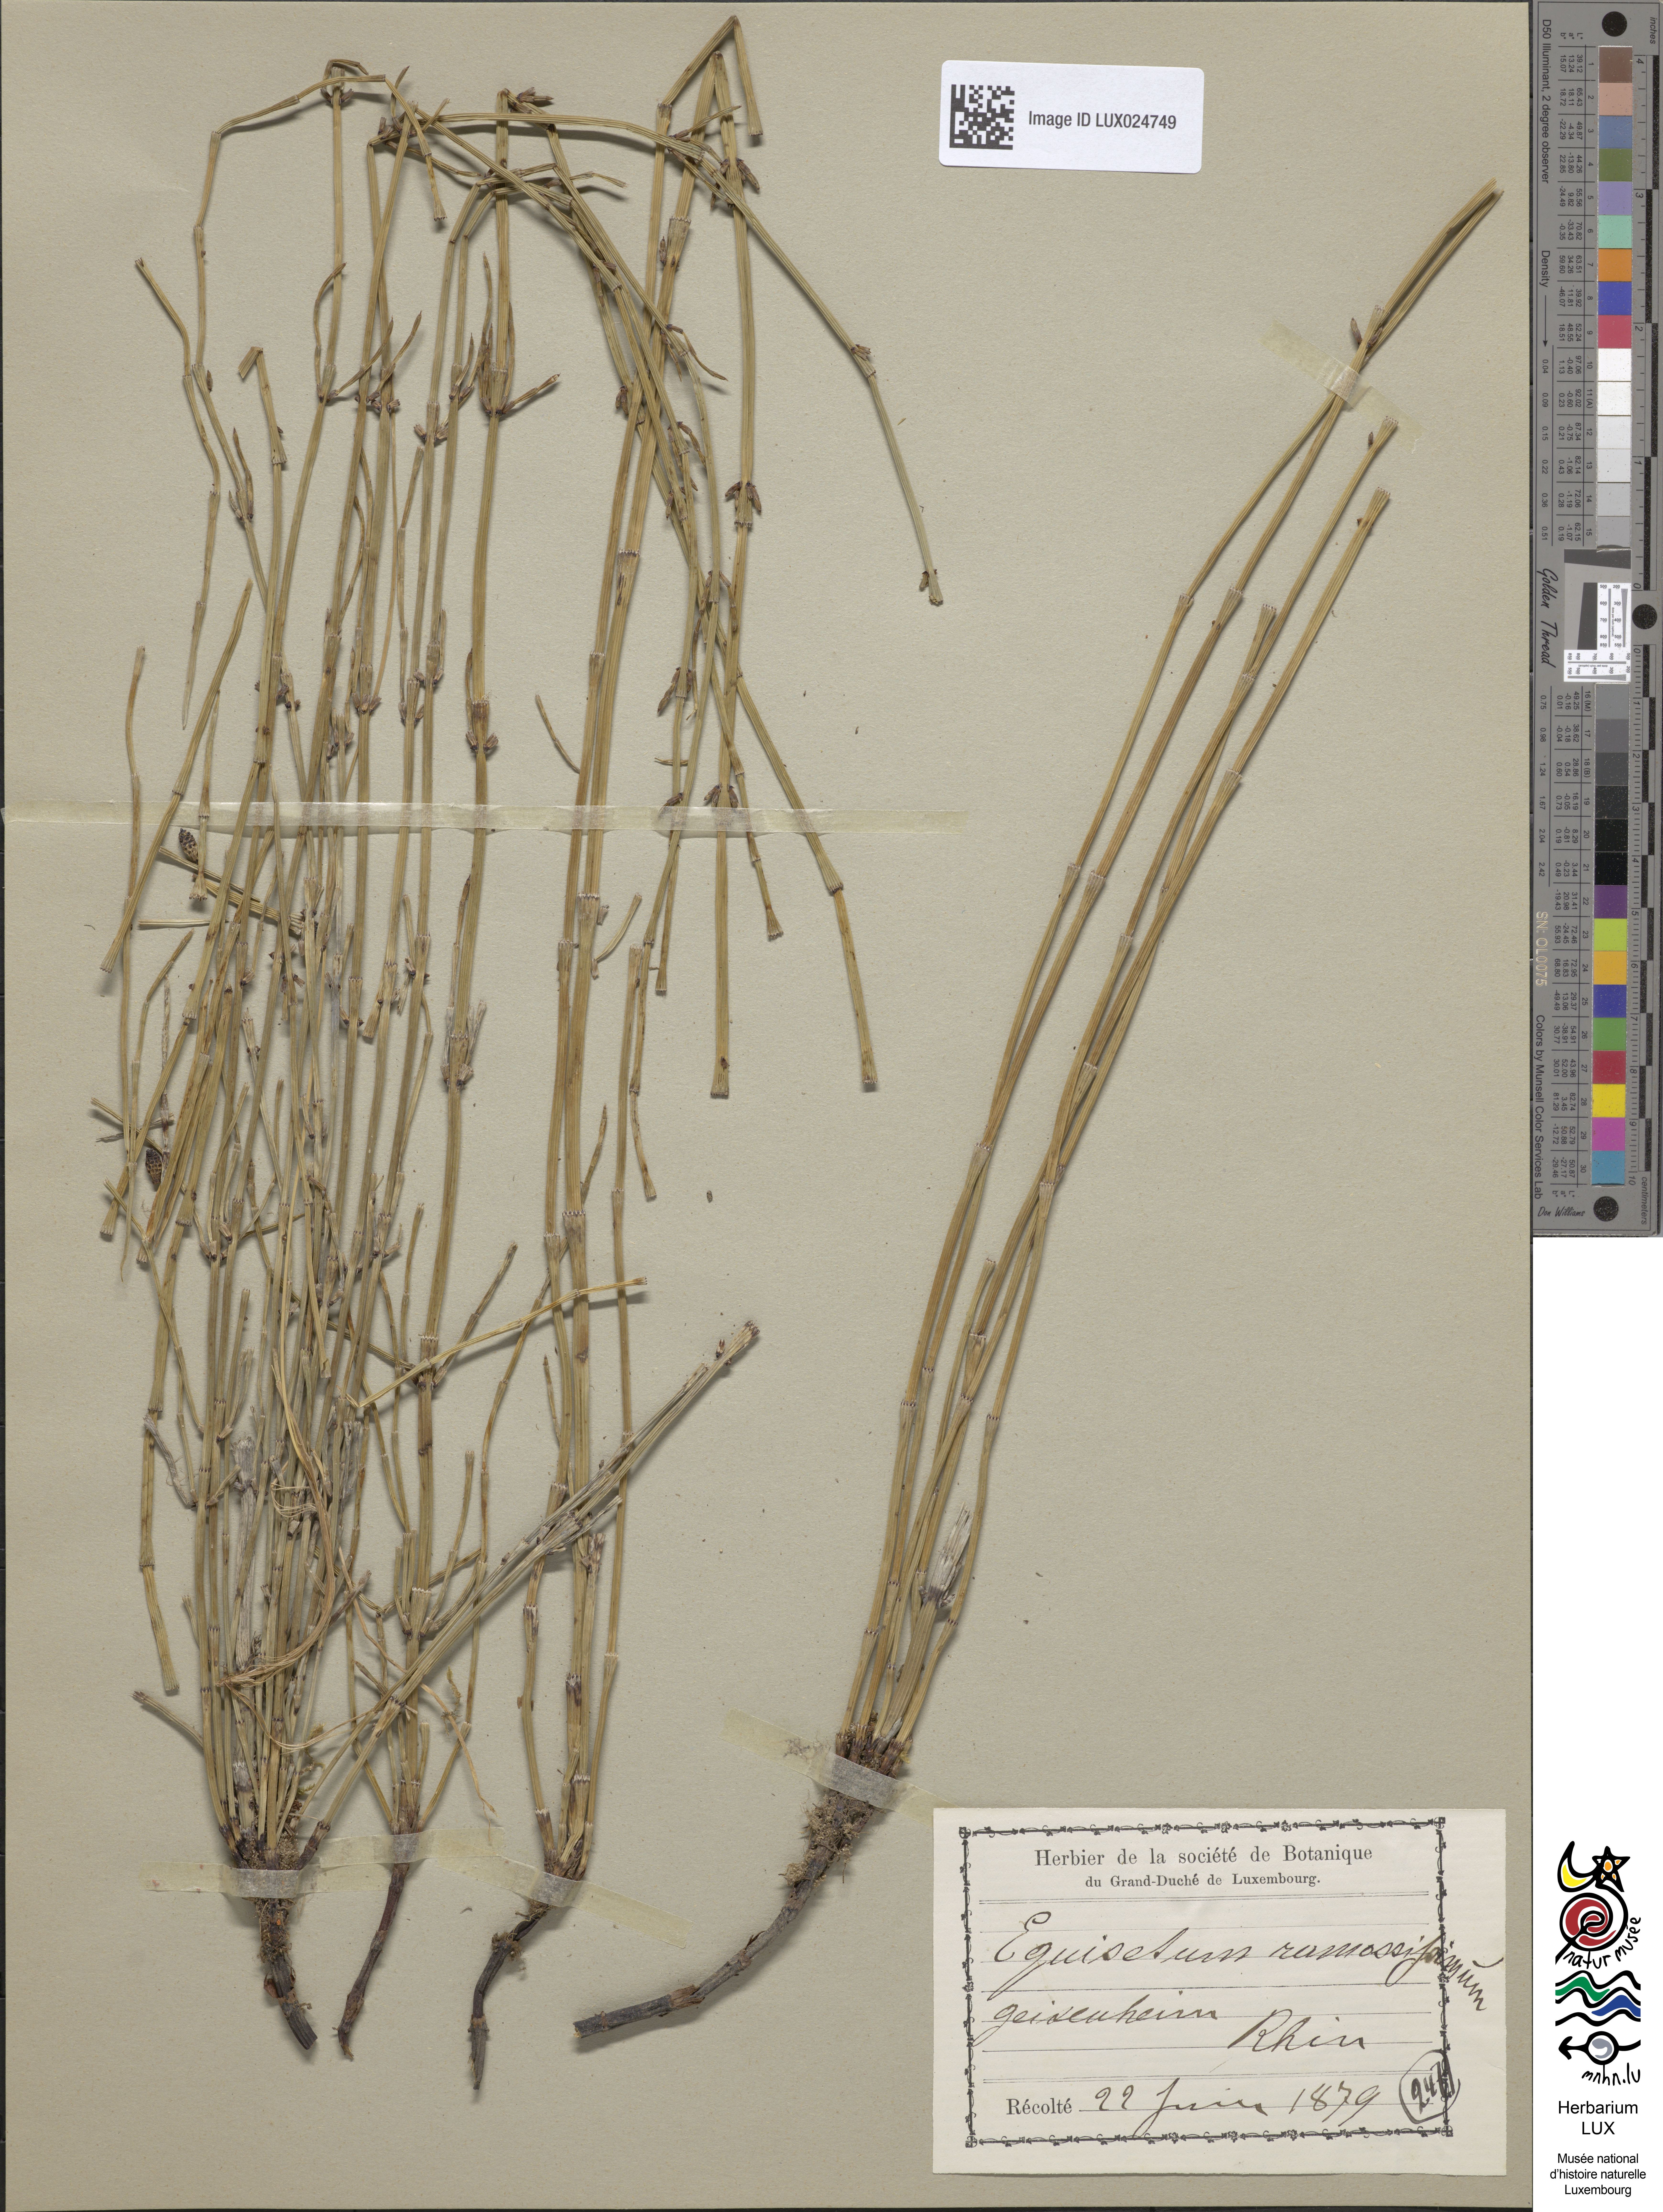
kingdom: Plantae
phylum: Tracheophyta
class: Polypodiopsida
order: Equisetales
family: Equisetaceae
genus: Equisetum
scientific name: Equisetum ramosissimum
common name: Branched horsetail
